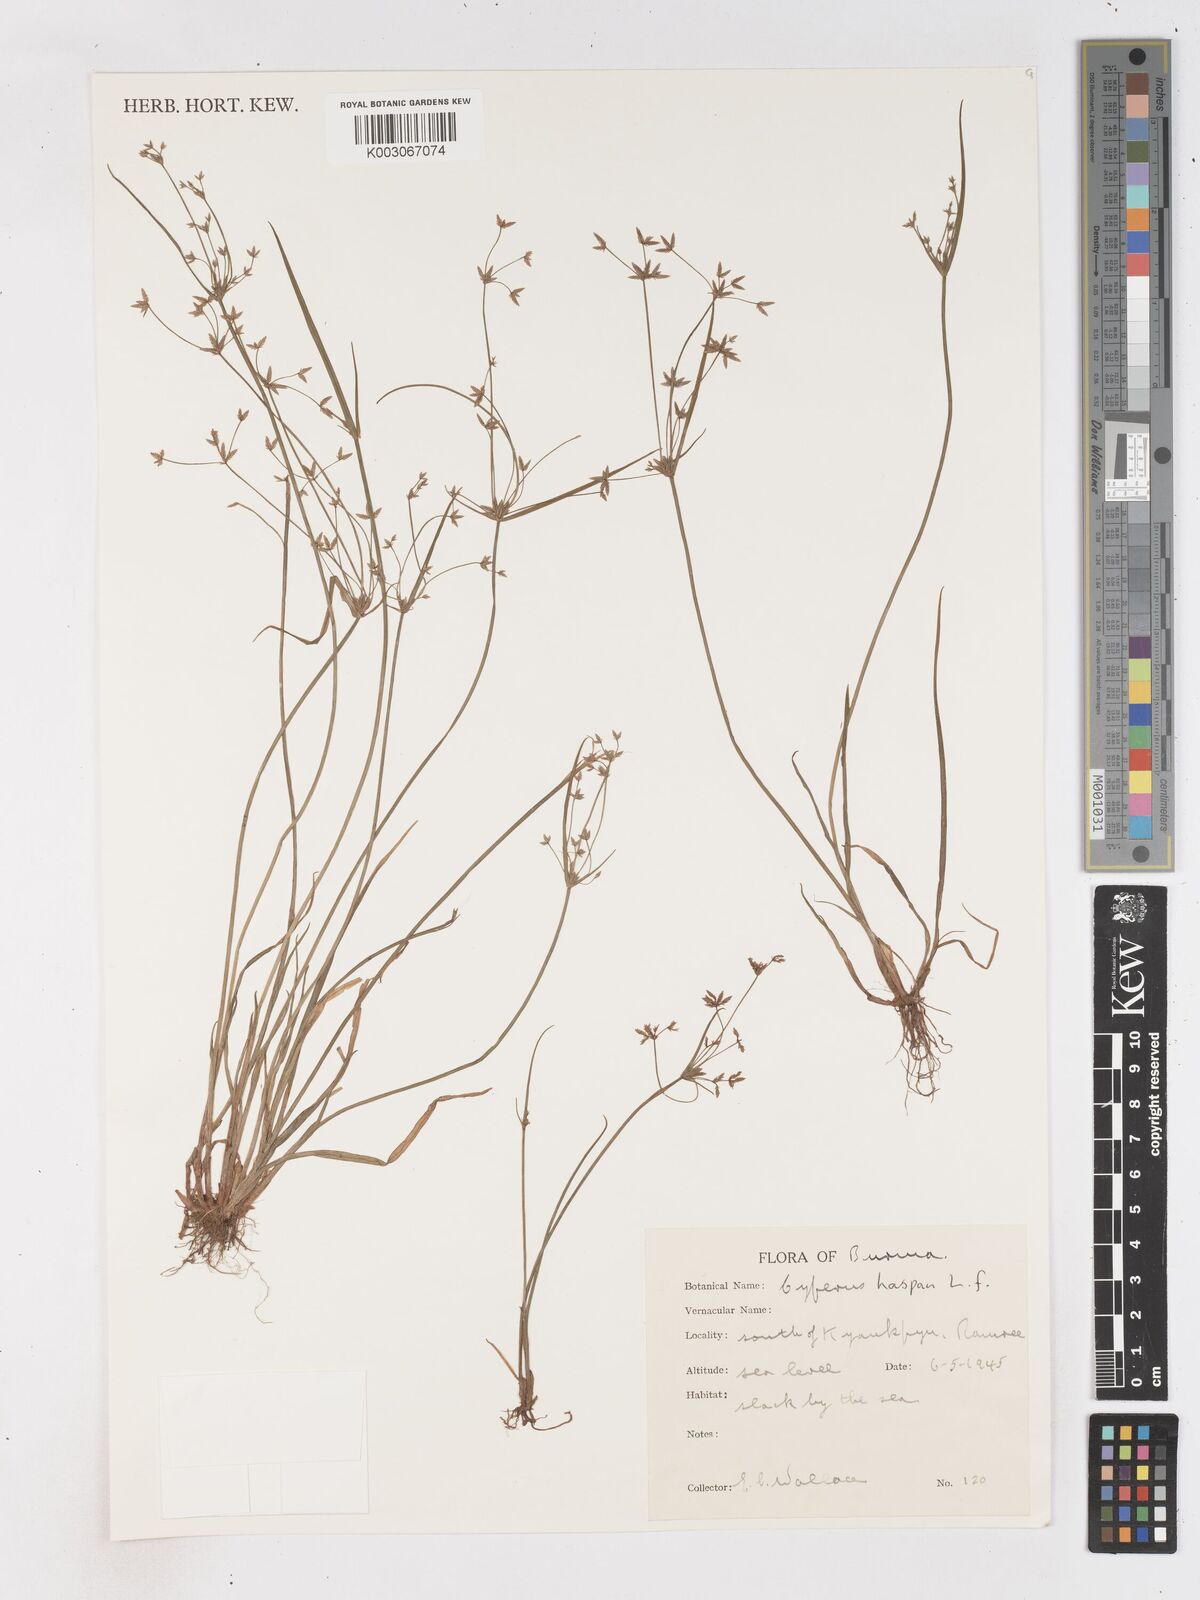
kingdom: Plantae
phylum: Tracheophyta
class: Liliopsida
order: Poales
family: Cyperaceae
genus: Cyperus
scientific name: Cyperus haspan
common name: Haspan flatsedge
